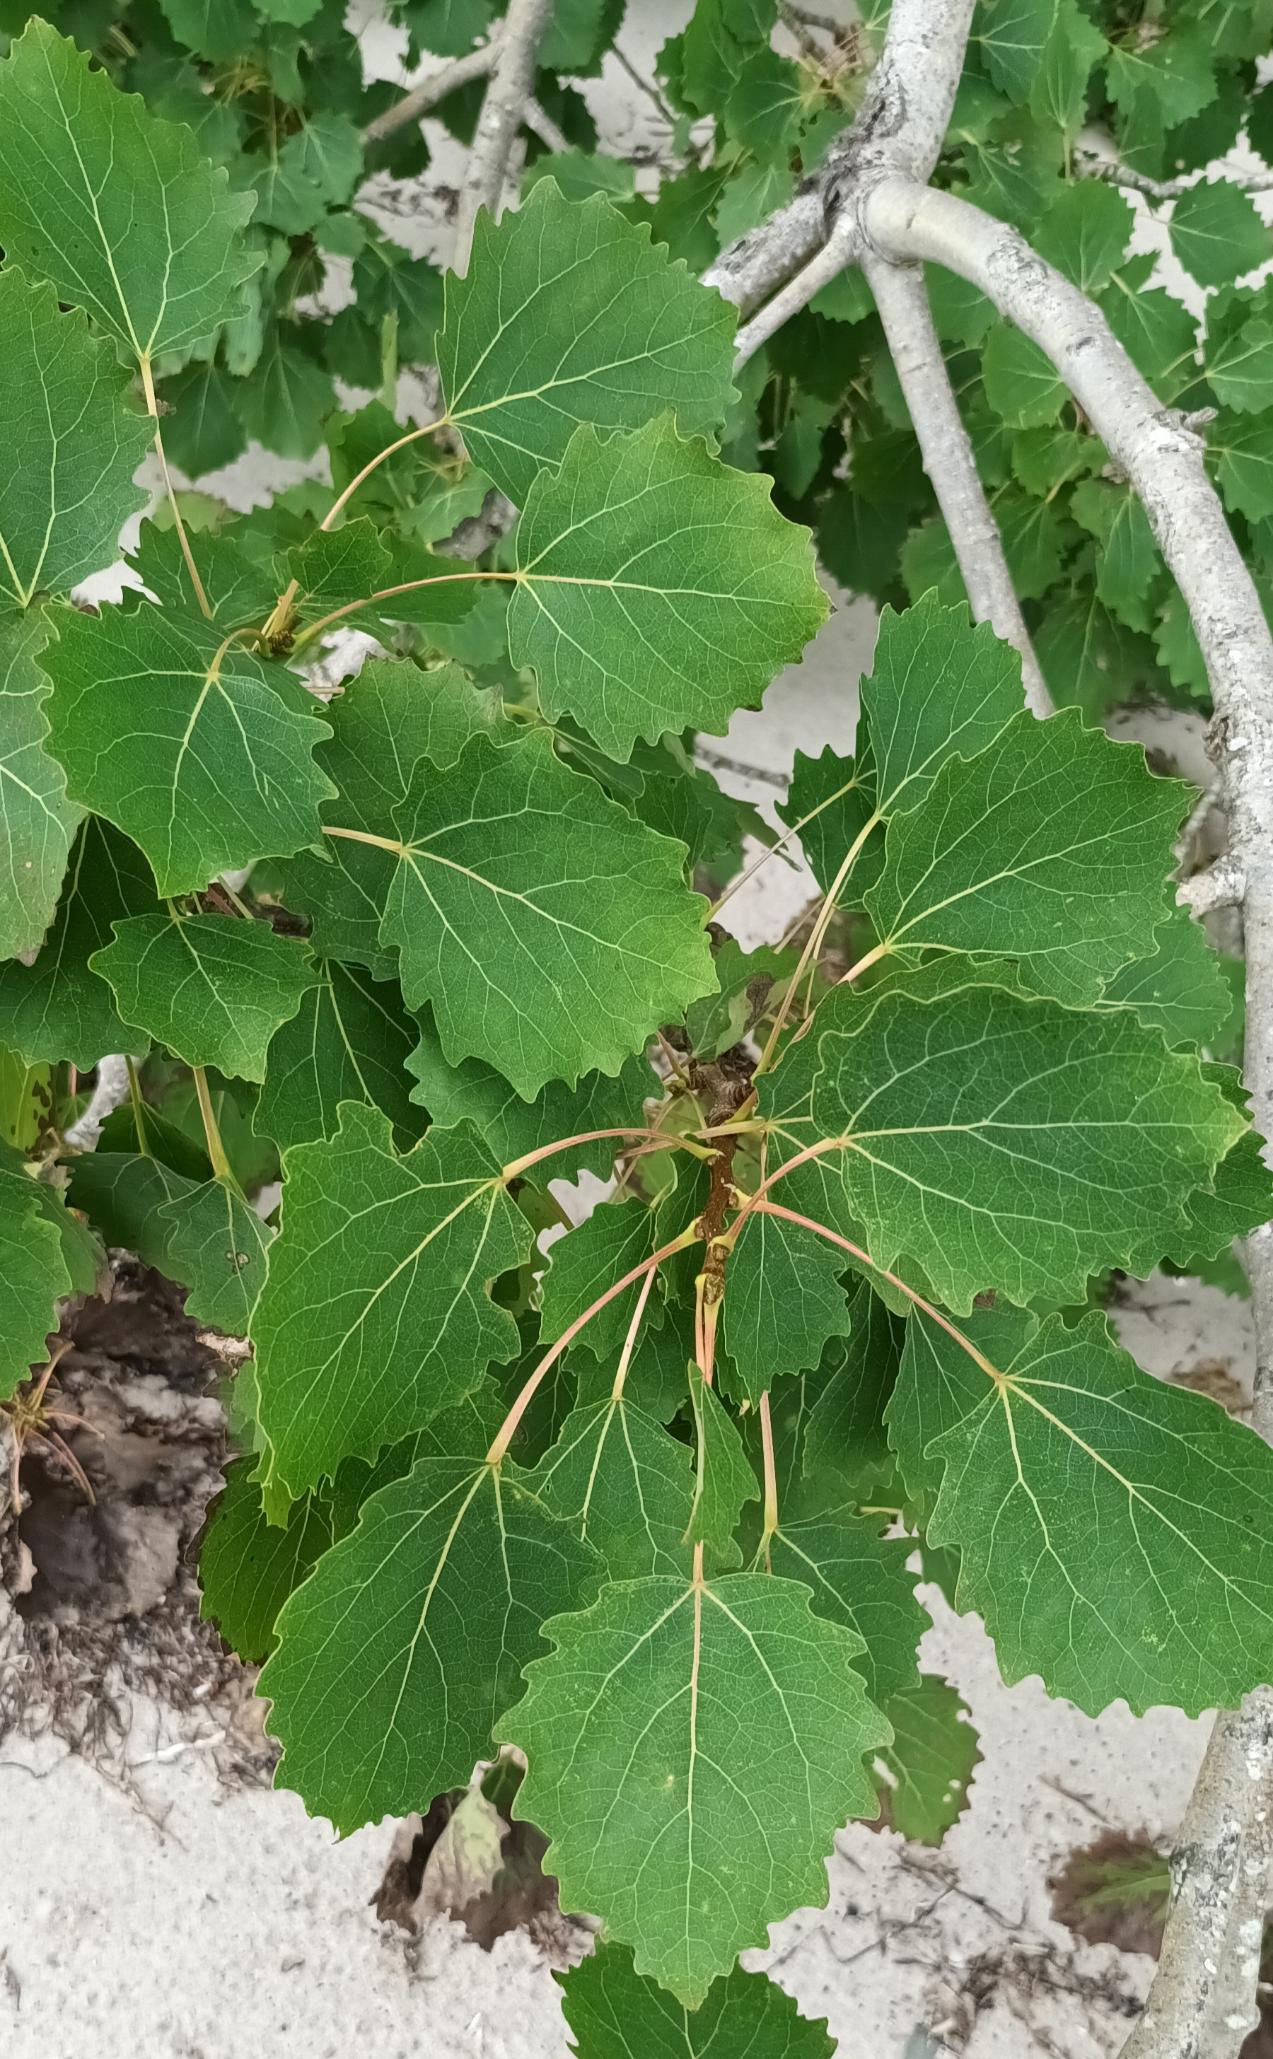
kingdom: Plantae
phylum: Tracheophyta
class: Magnoliopsida
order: Malpighiales
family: Salicaceae
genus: Populus
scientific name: Populus tremula
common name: Bævreasp
